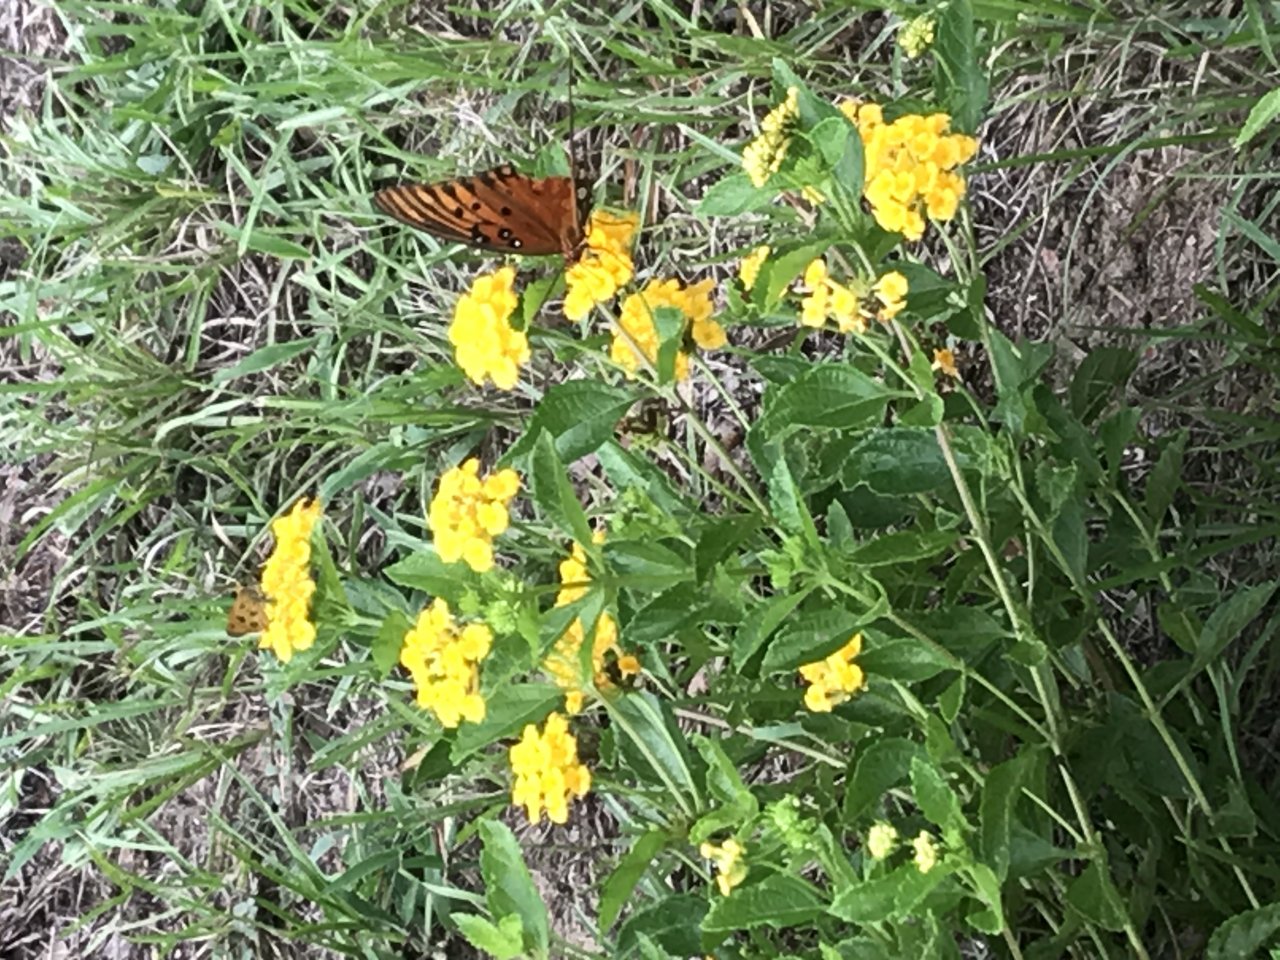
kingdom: Animalia
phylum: Arthropoda
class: Insecta
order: Lepidoptera
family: Hesperiidae
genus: Polites
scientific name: Polites vibex
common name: Whirlabout
